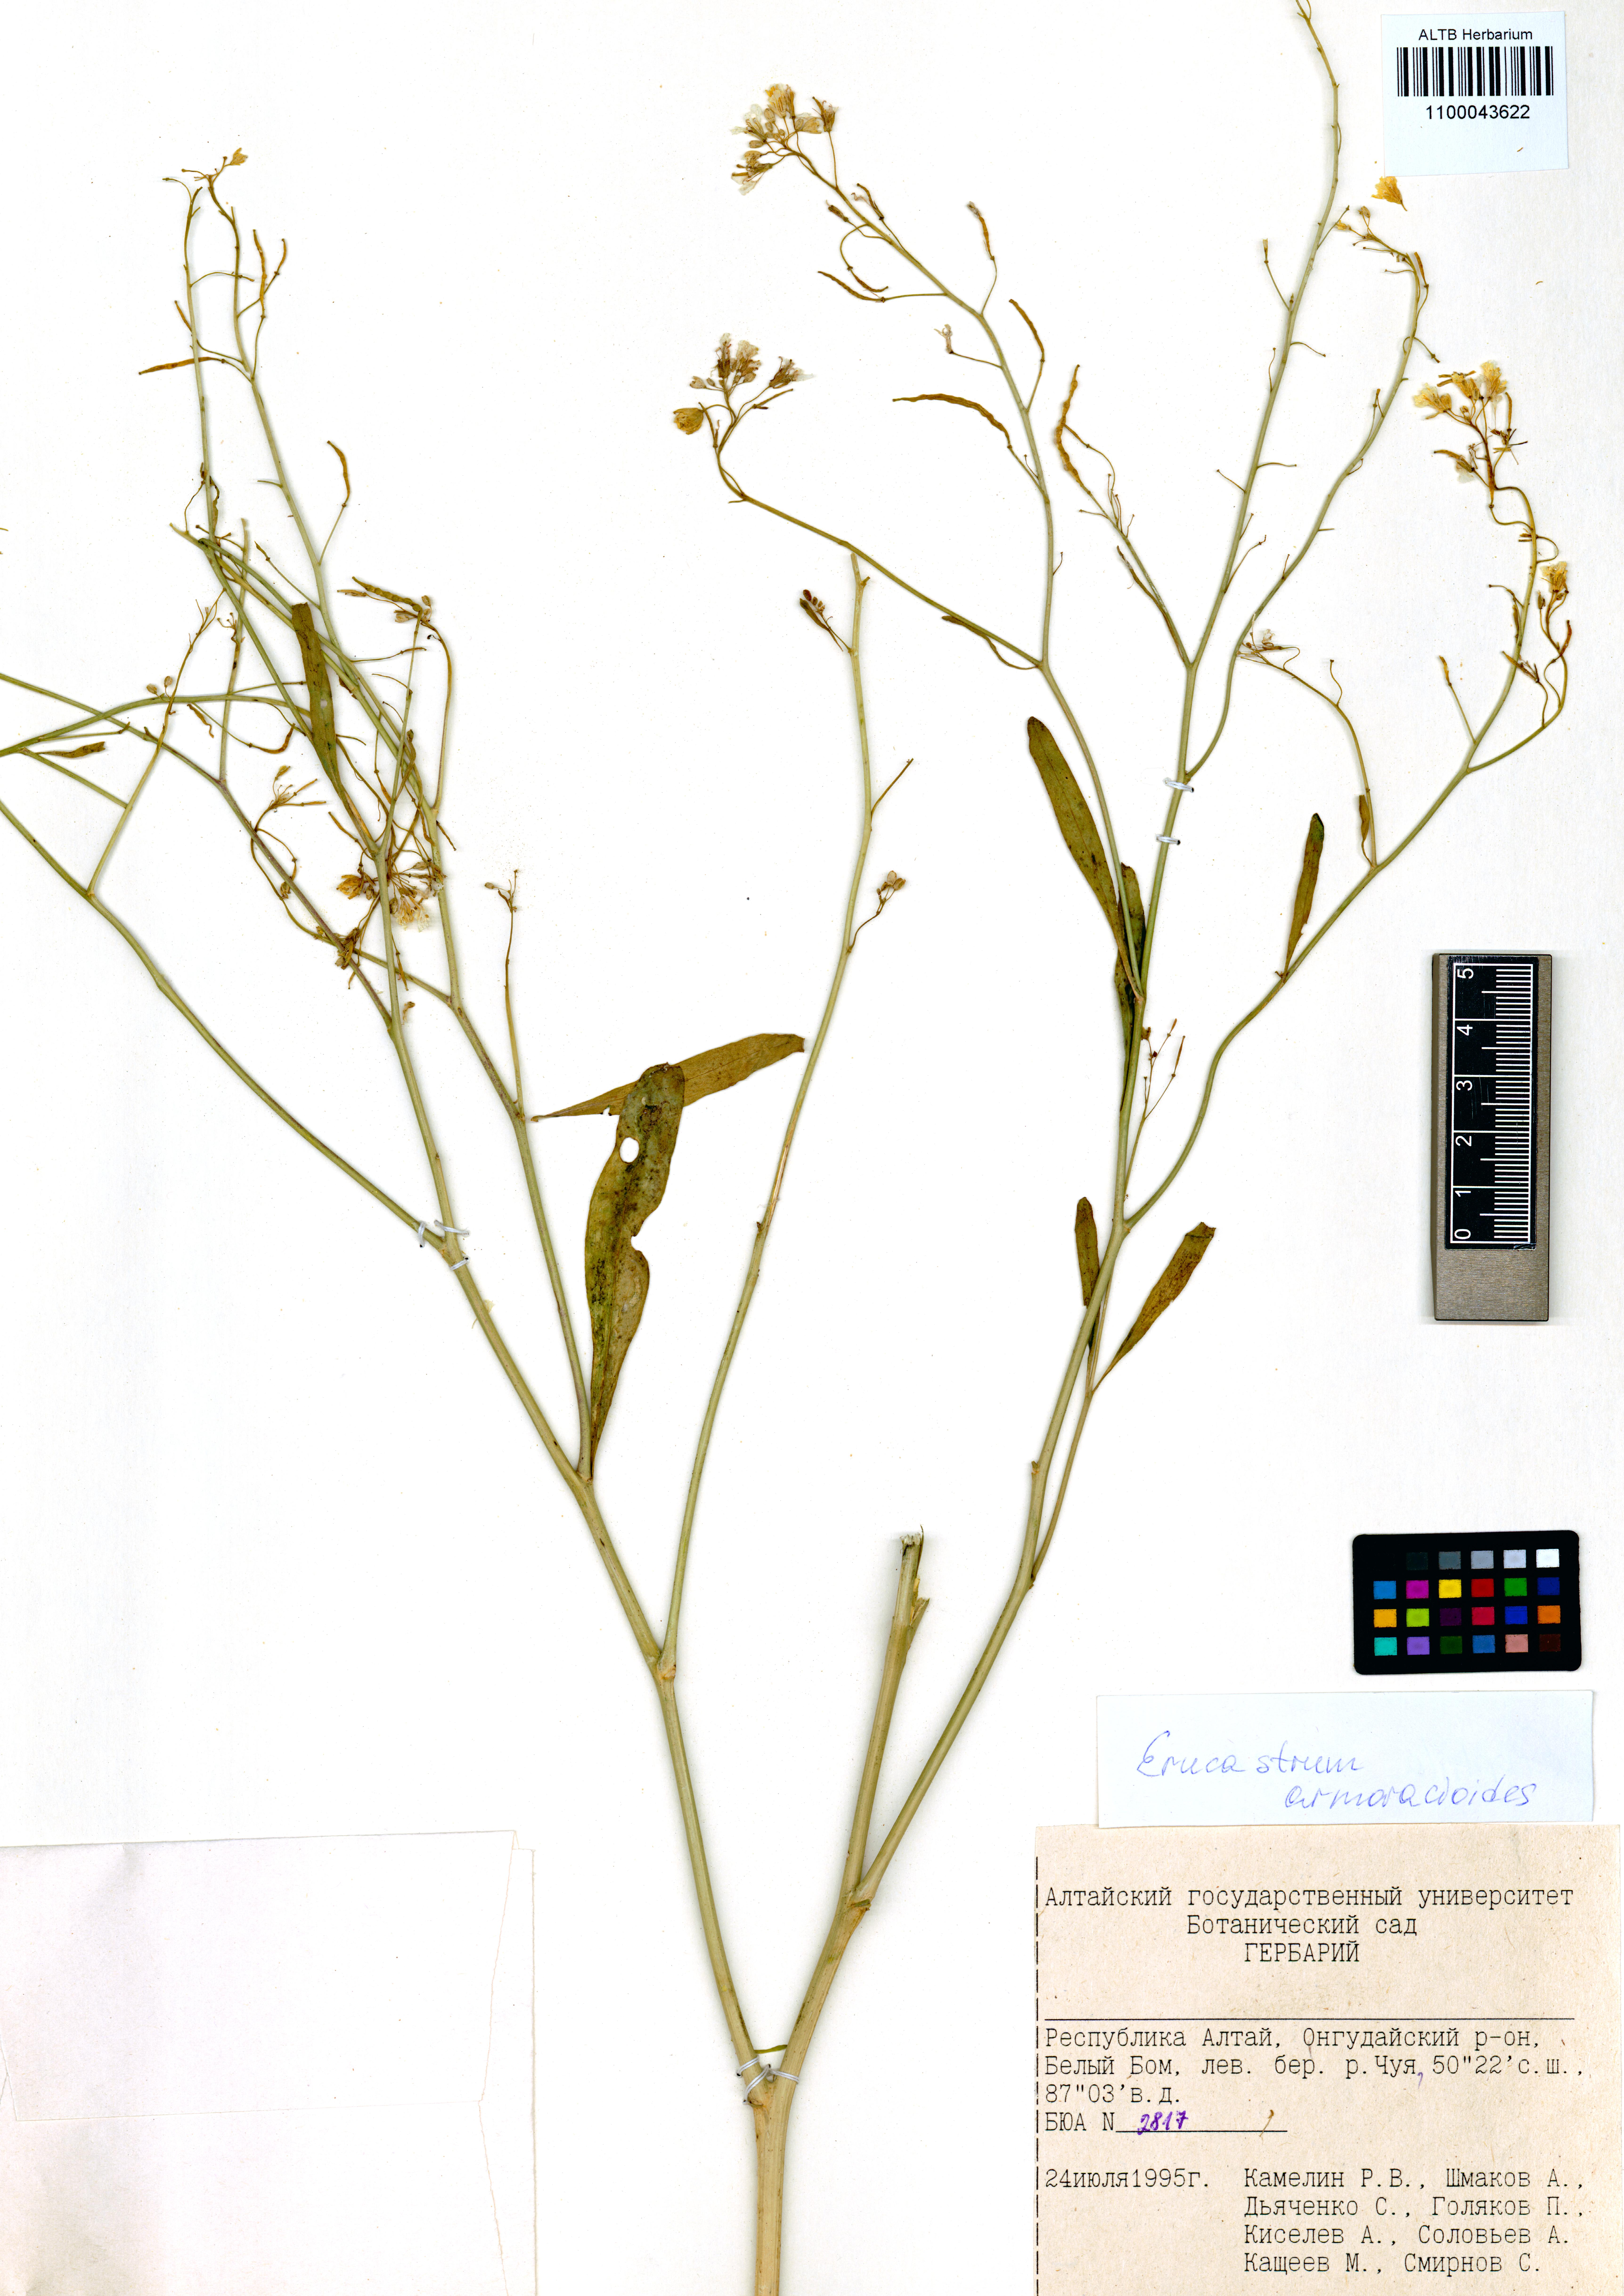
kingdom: Plantae
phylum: Tracheophyta
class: Magnoliopsida
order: Brassicales
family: Brassicaceae
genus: Brassica
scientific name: Brassica elongata
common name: Long-stalked rape
